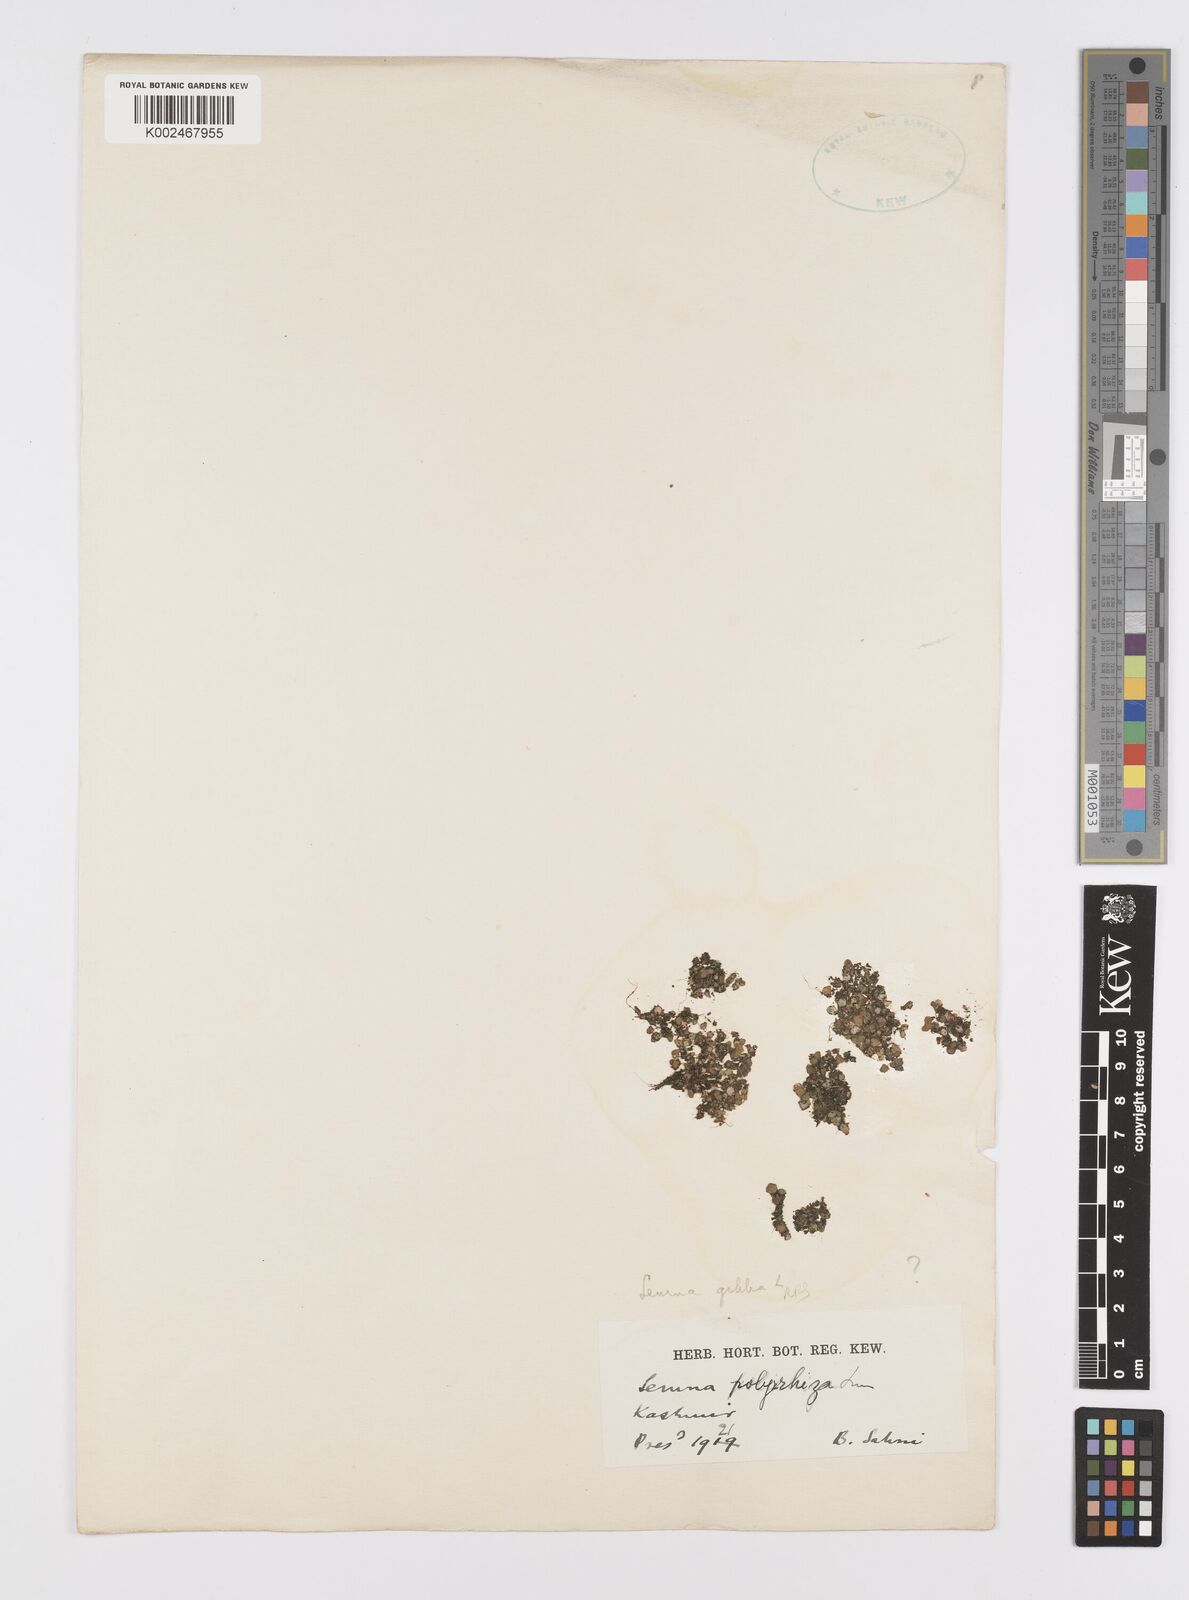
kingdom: Plantae
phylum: Tracheophyta
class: Liliopsida
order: Alismatales
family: Araceae
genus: Lemna
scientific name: Lemna gibba
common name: Fat duckweed
